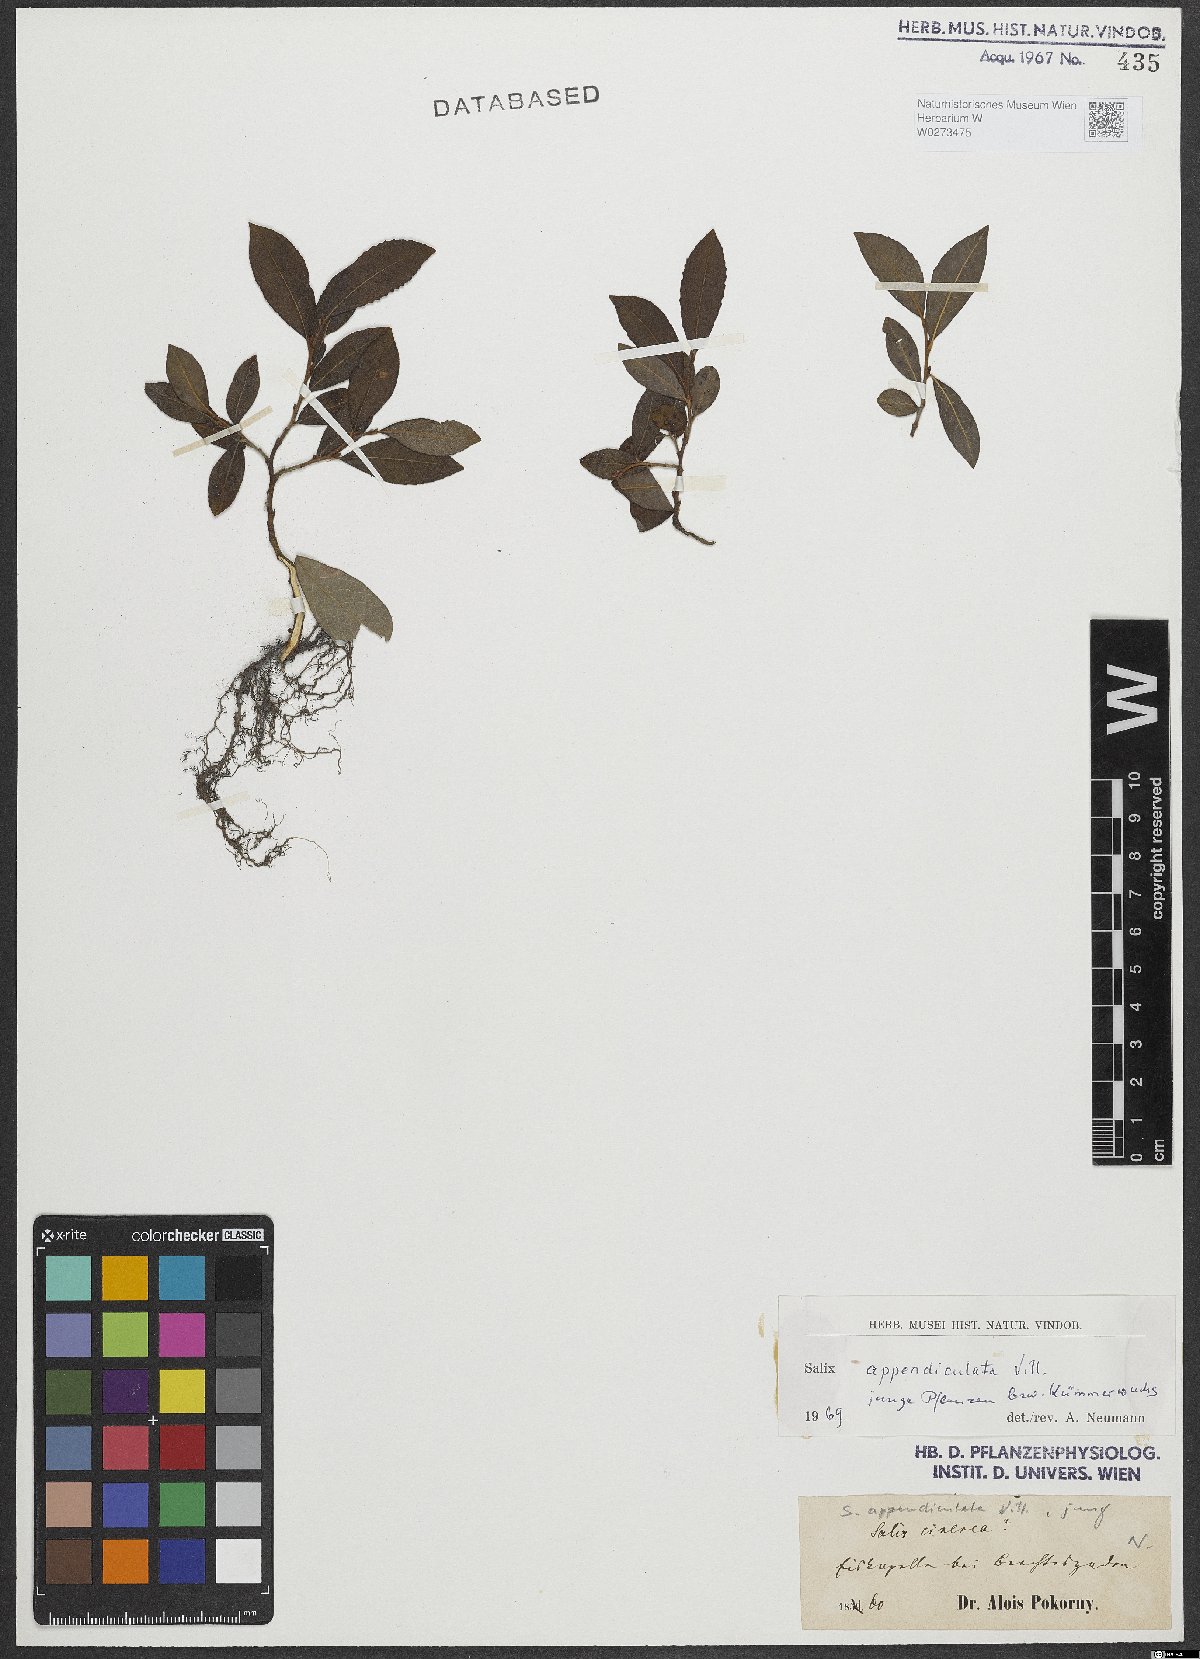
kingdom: Plantae
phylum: Tracheophyta
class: Magnoliopsida
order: Malpighiales
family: Salicaceae
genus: Salix
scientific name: Salix appendiculata
